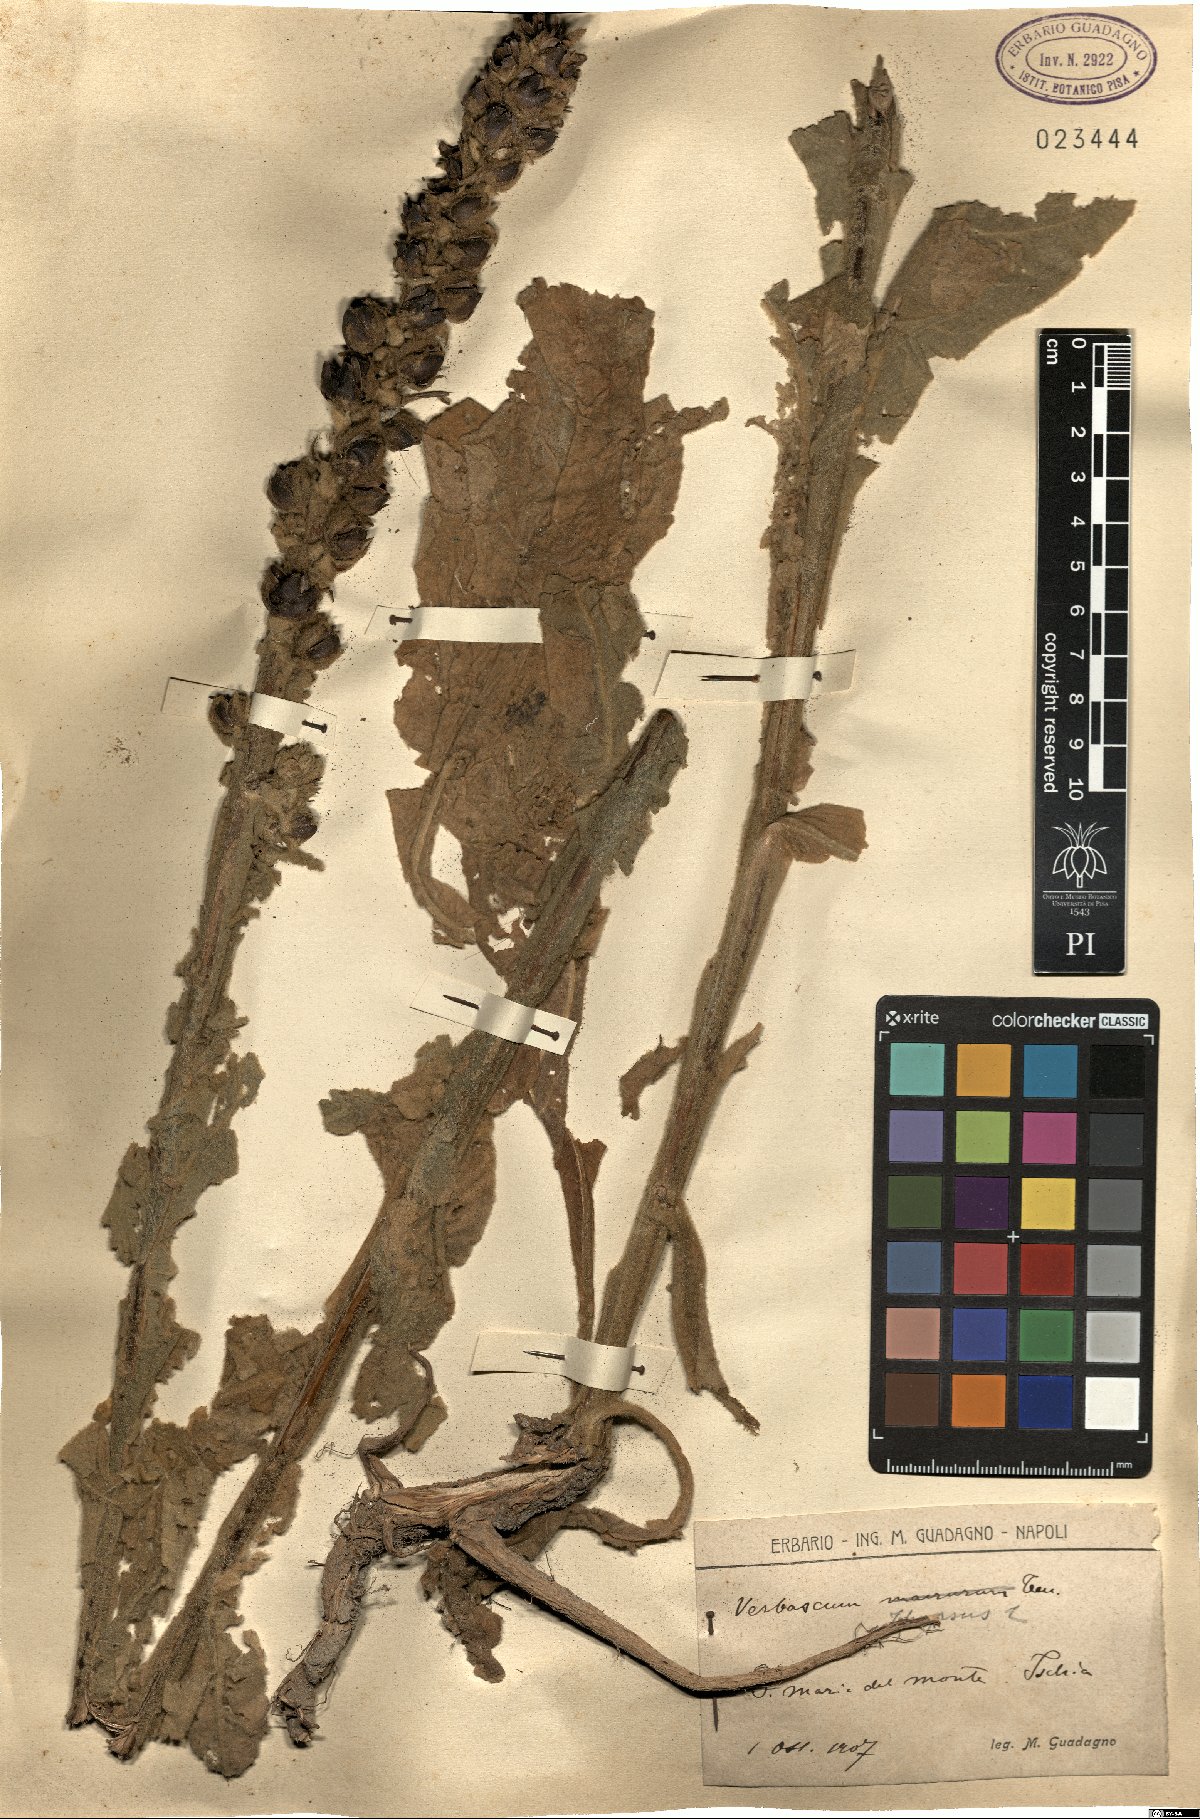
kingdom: Plantae
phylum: Tracheophyta
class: Magnoliopsida
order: Lamiales
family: Scrophulariaceae
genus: Verbascum
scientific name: Verbascum thapsus
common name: Common mullein
